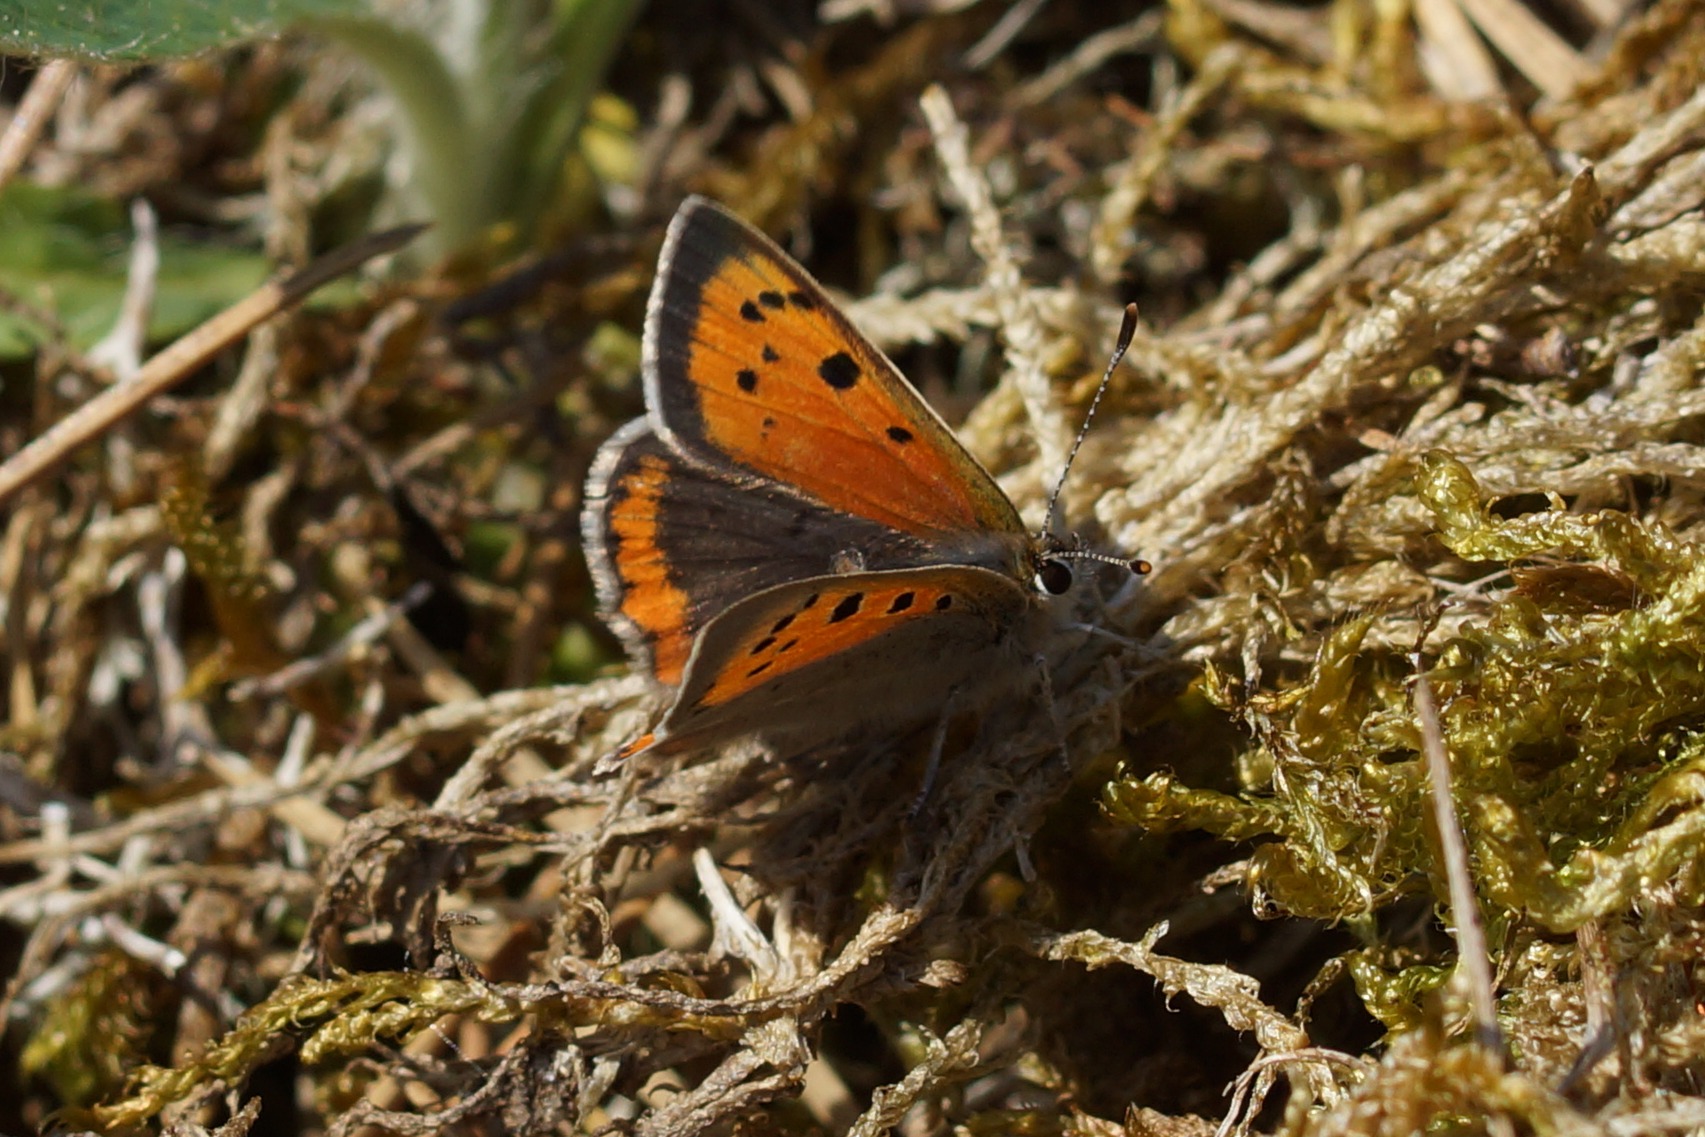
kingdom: Animalia
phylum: Arthropoda
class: Insecta
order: Lepidoptera
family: Lycaenidae
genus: Lycaena
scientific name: Lycaena phlaeas
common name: Lille ildfugl
